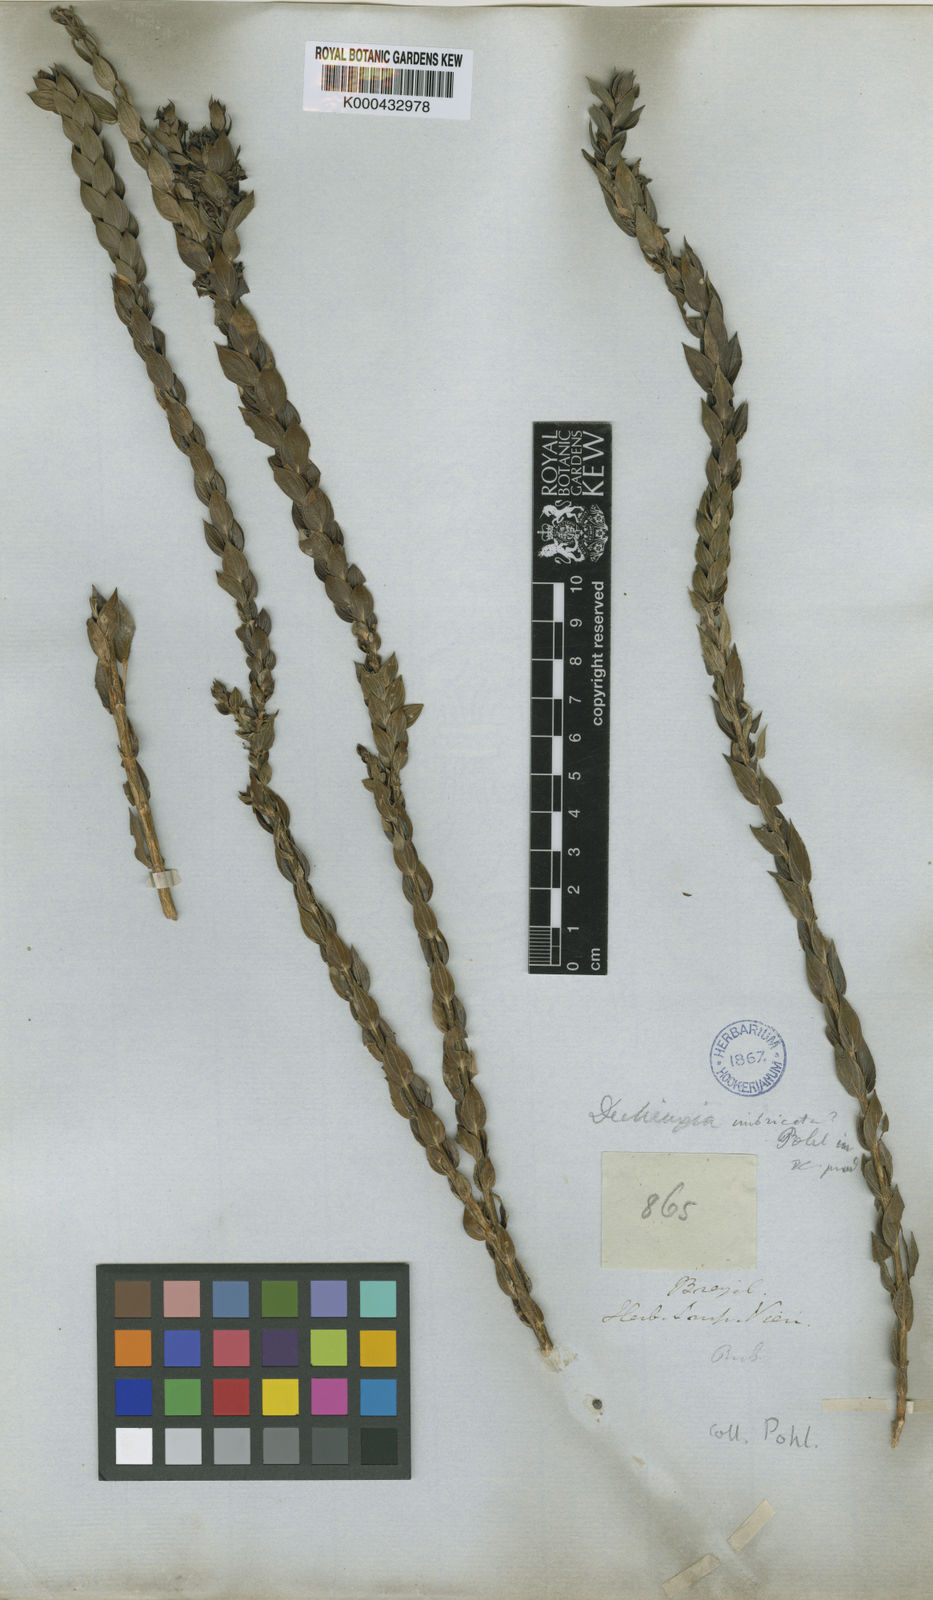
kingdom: Plantae
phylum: Tracheophyta
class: Magnoliopsida
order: Gentianales
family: Rubiaceae
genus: Declieuxia
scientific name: Declieuxia
